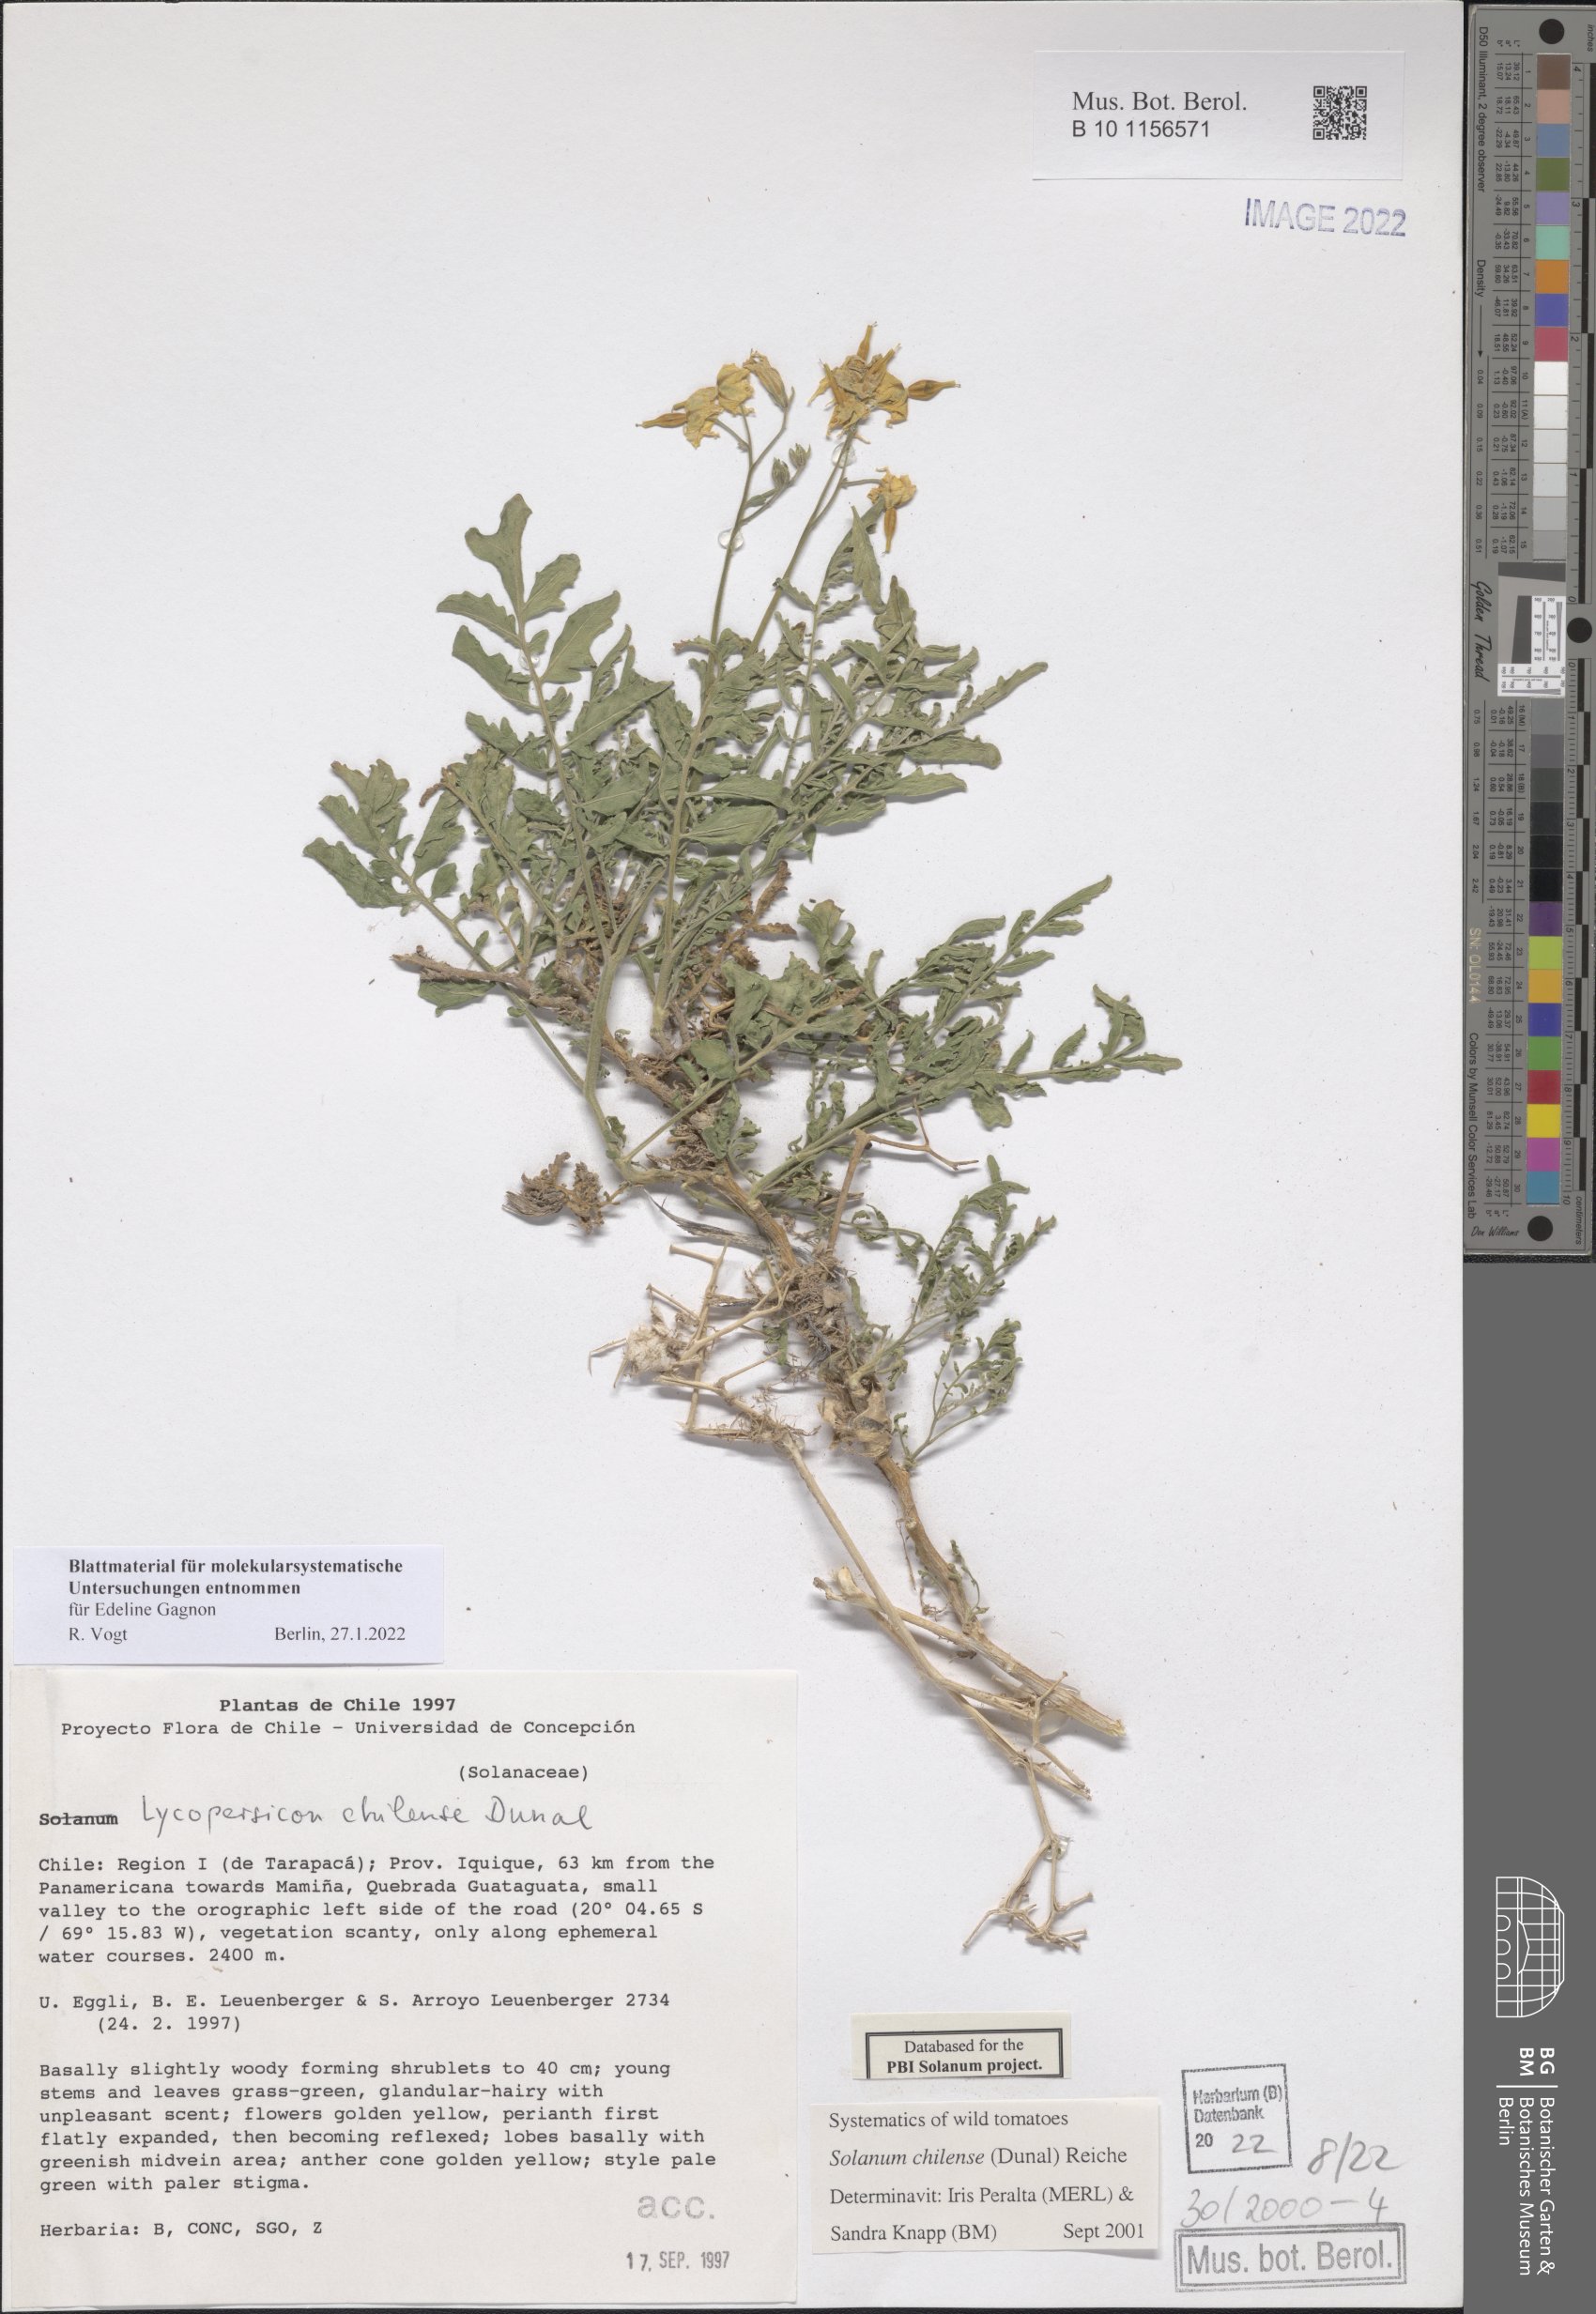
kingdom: Plantae
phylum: Tracheophyta
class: Magnoliopsida
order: Solanales
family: Solanaceae
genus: Solanum
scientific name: Solanum chilense
